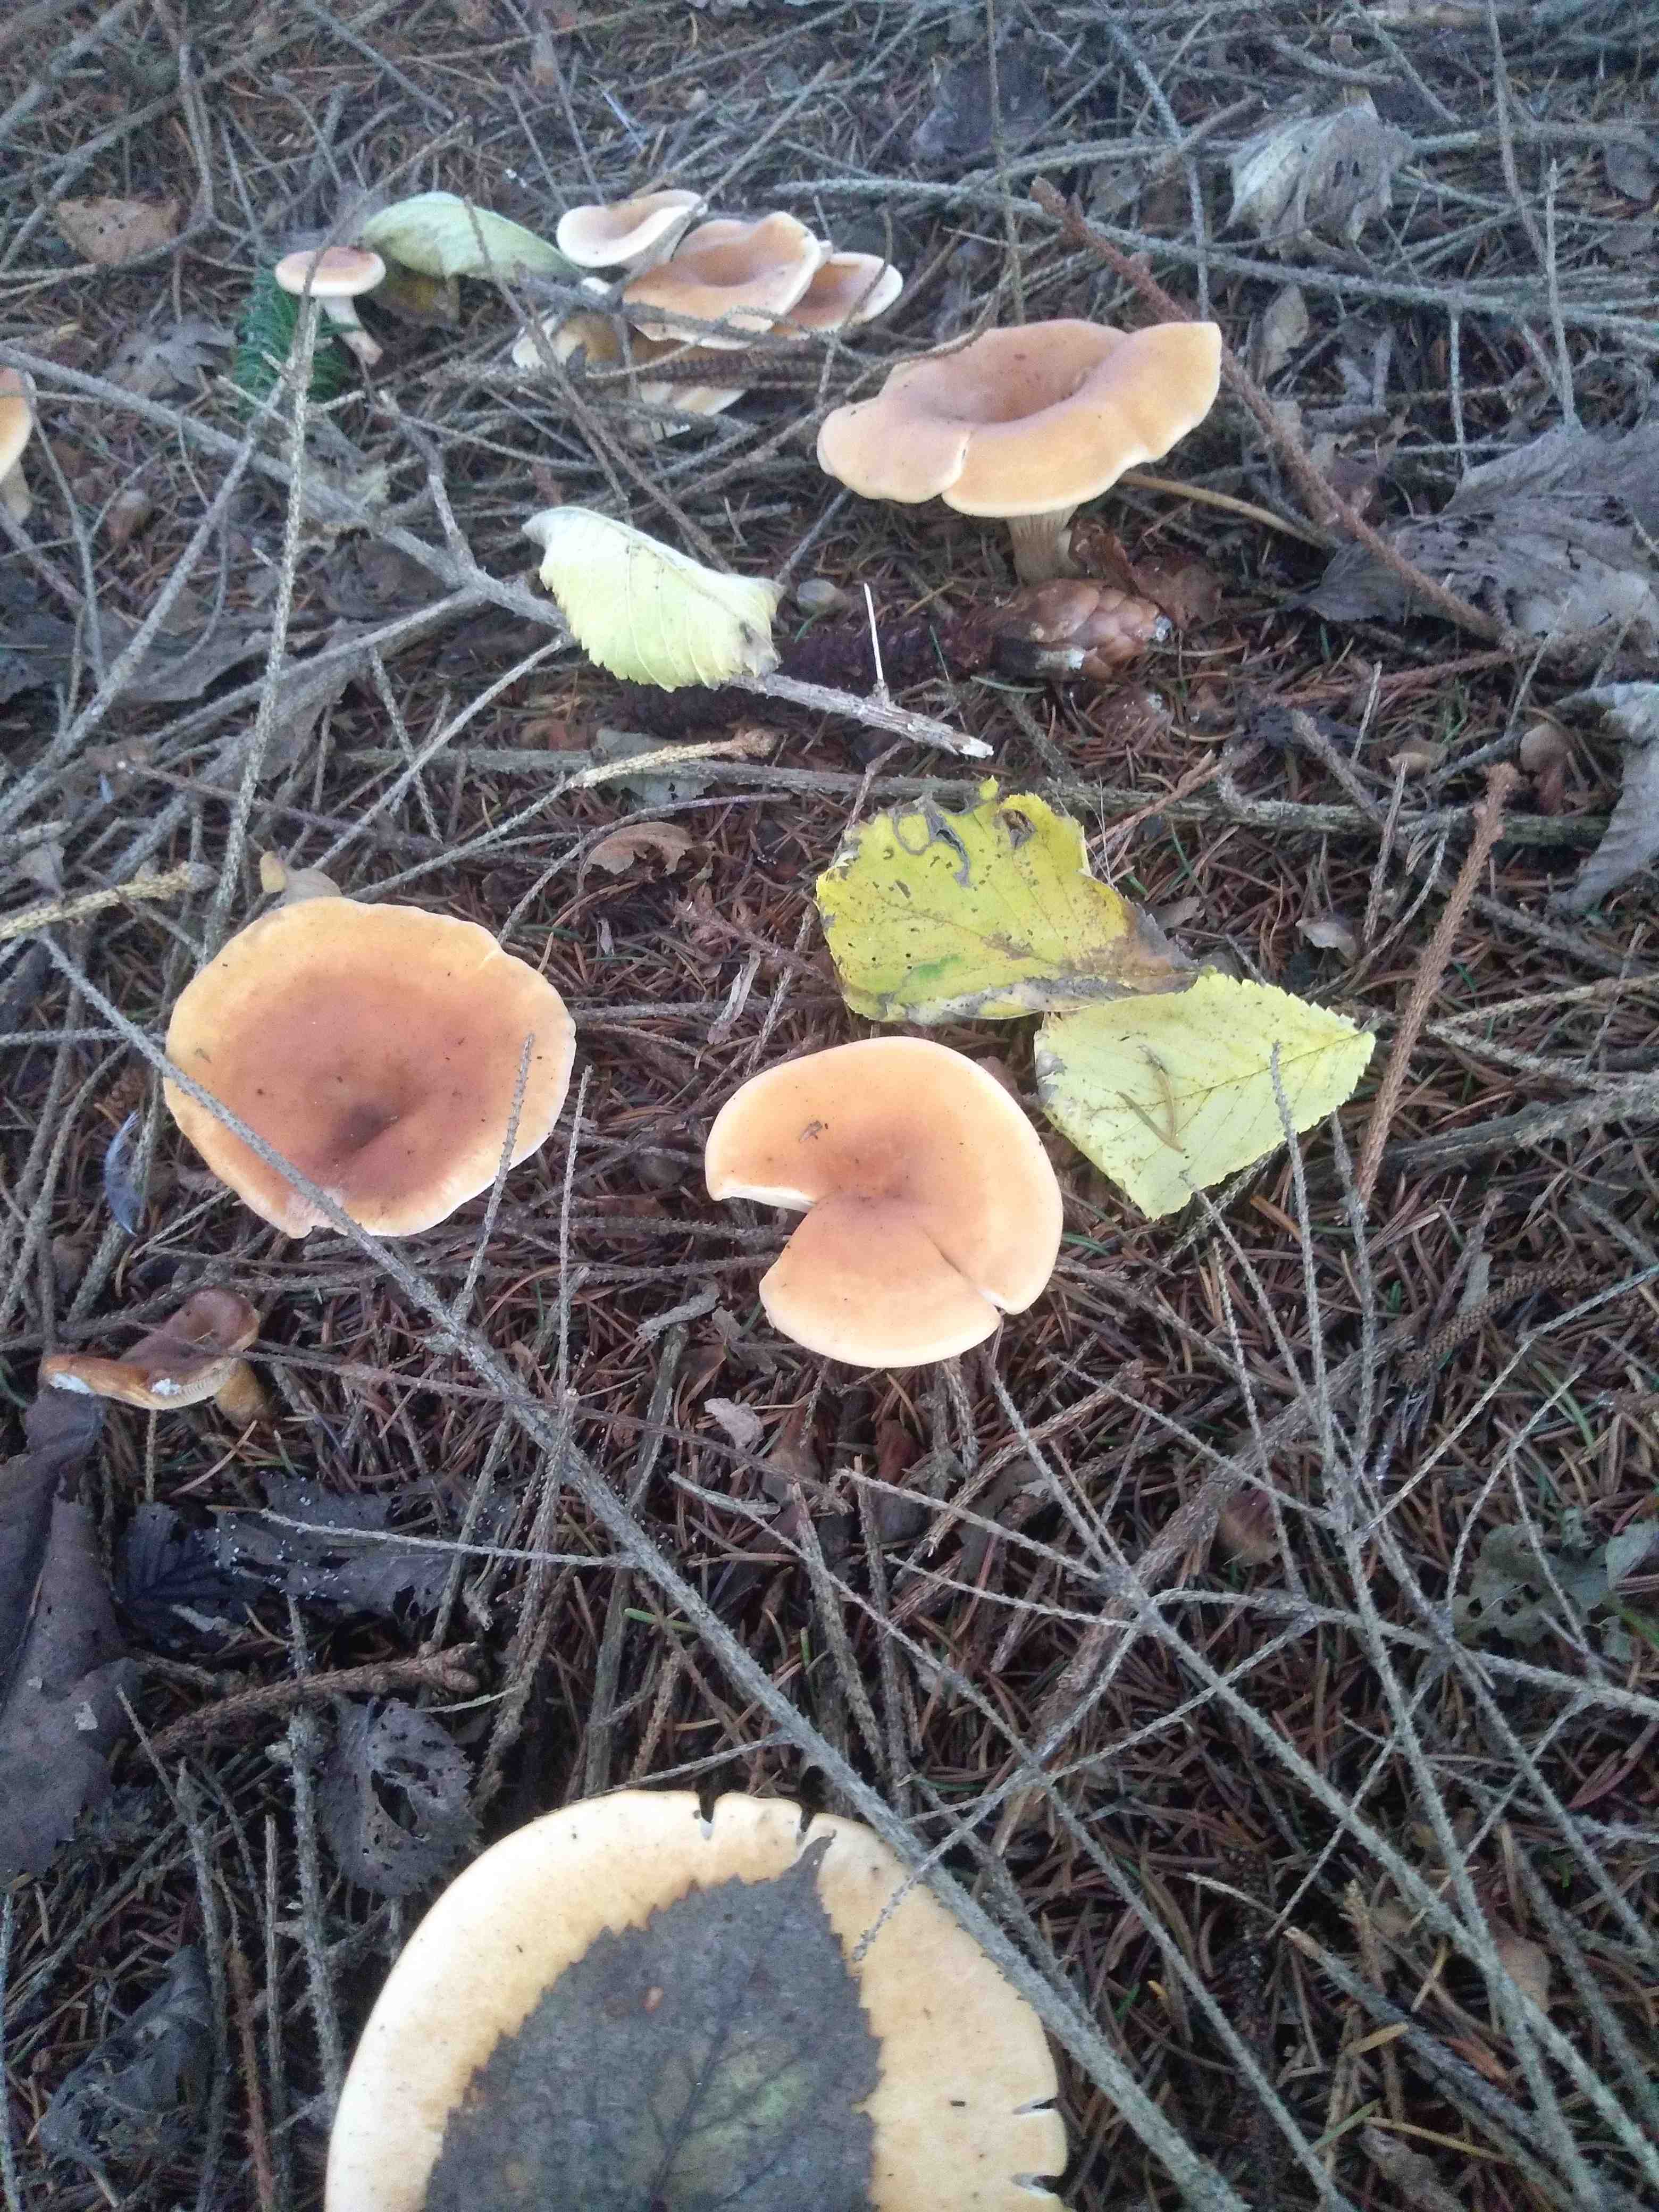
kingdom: Fungi
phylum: Basidiomycota
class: Agaricomycetes
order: Agaricales
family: Tricholomataceae
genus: Paralepista
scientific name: Paralepista flaccida
